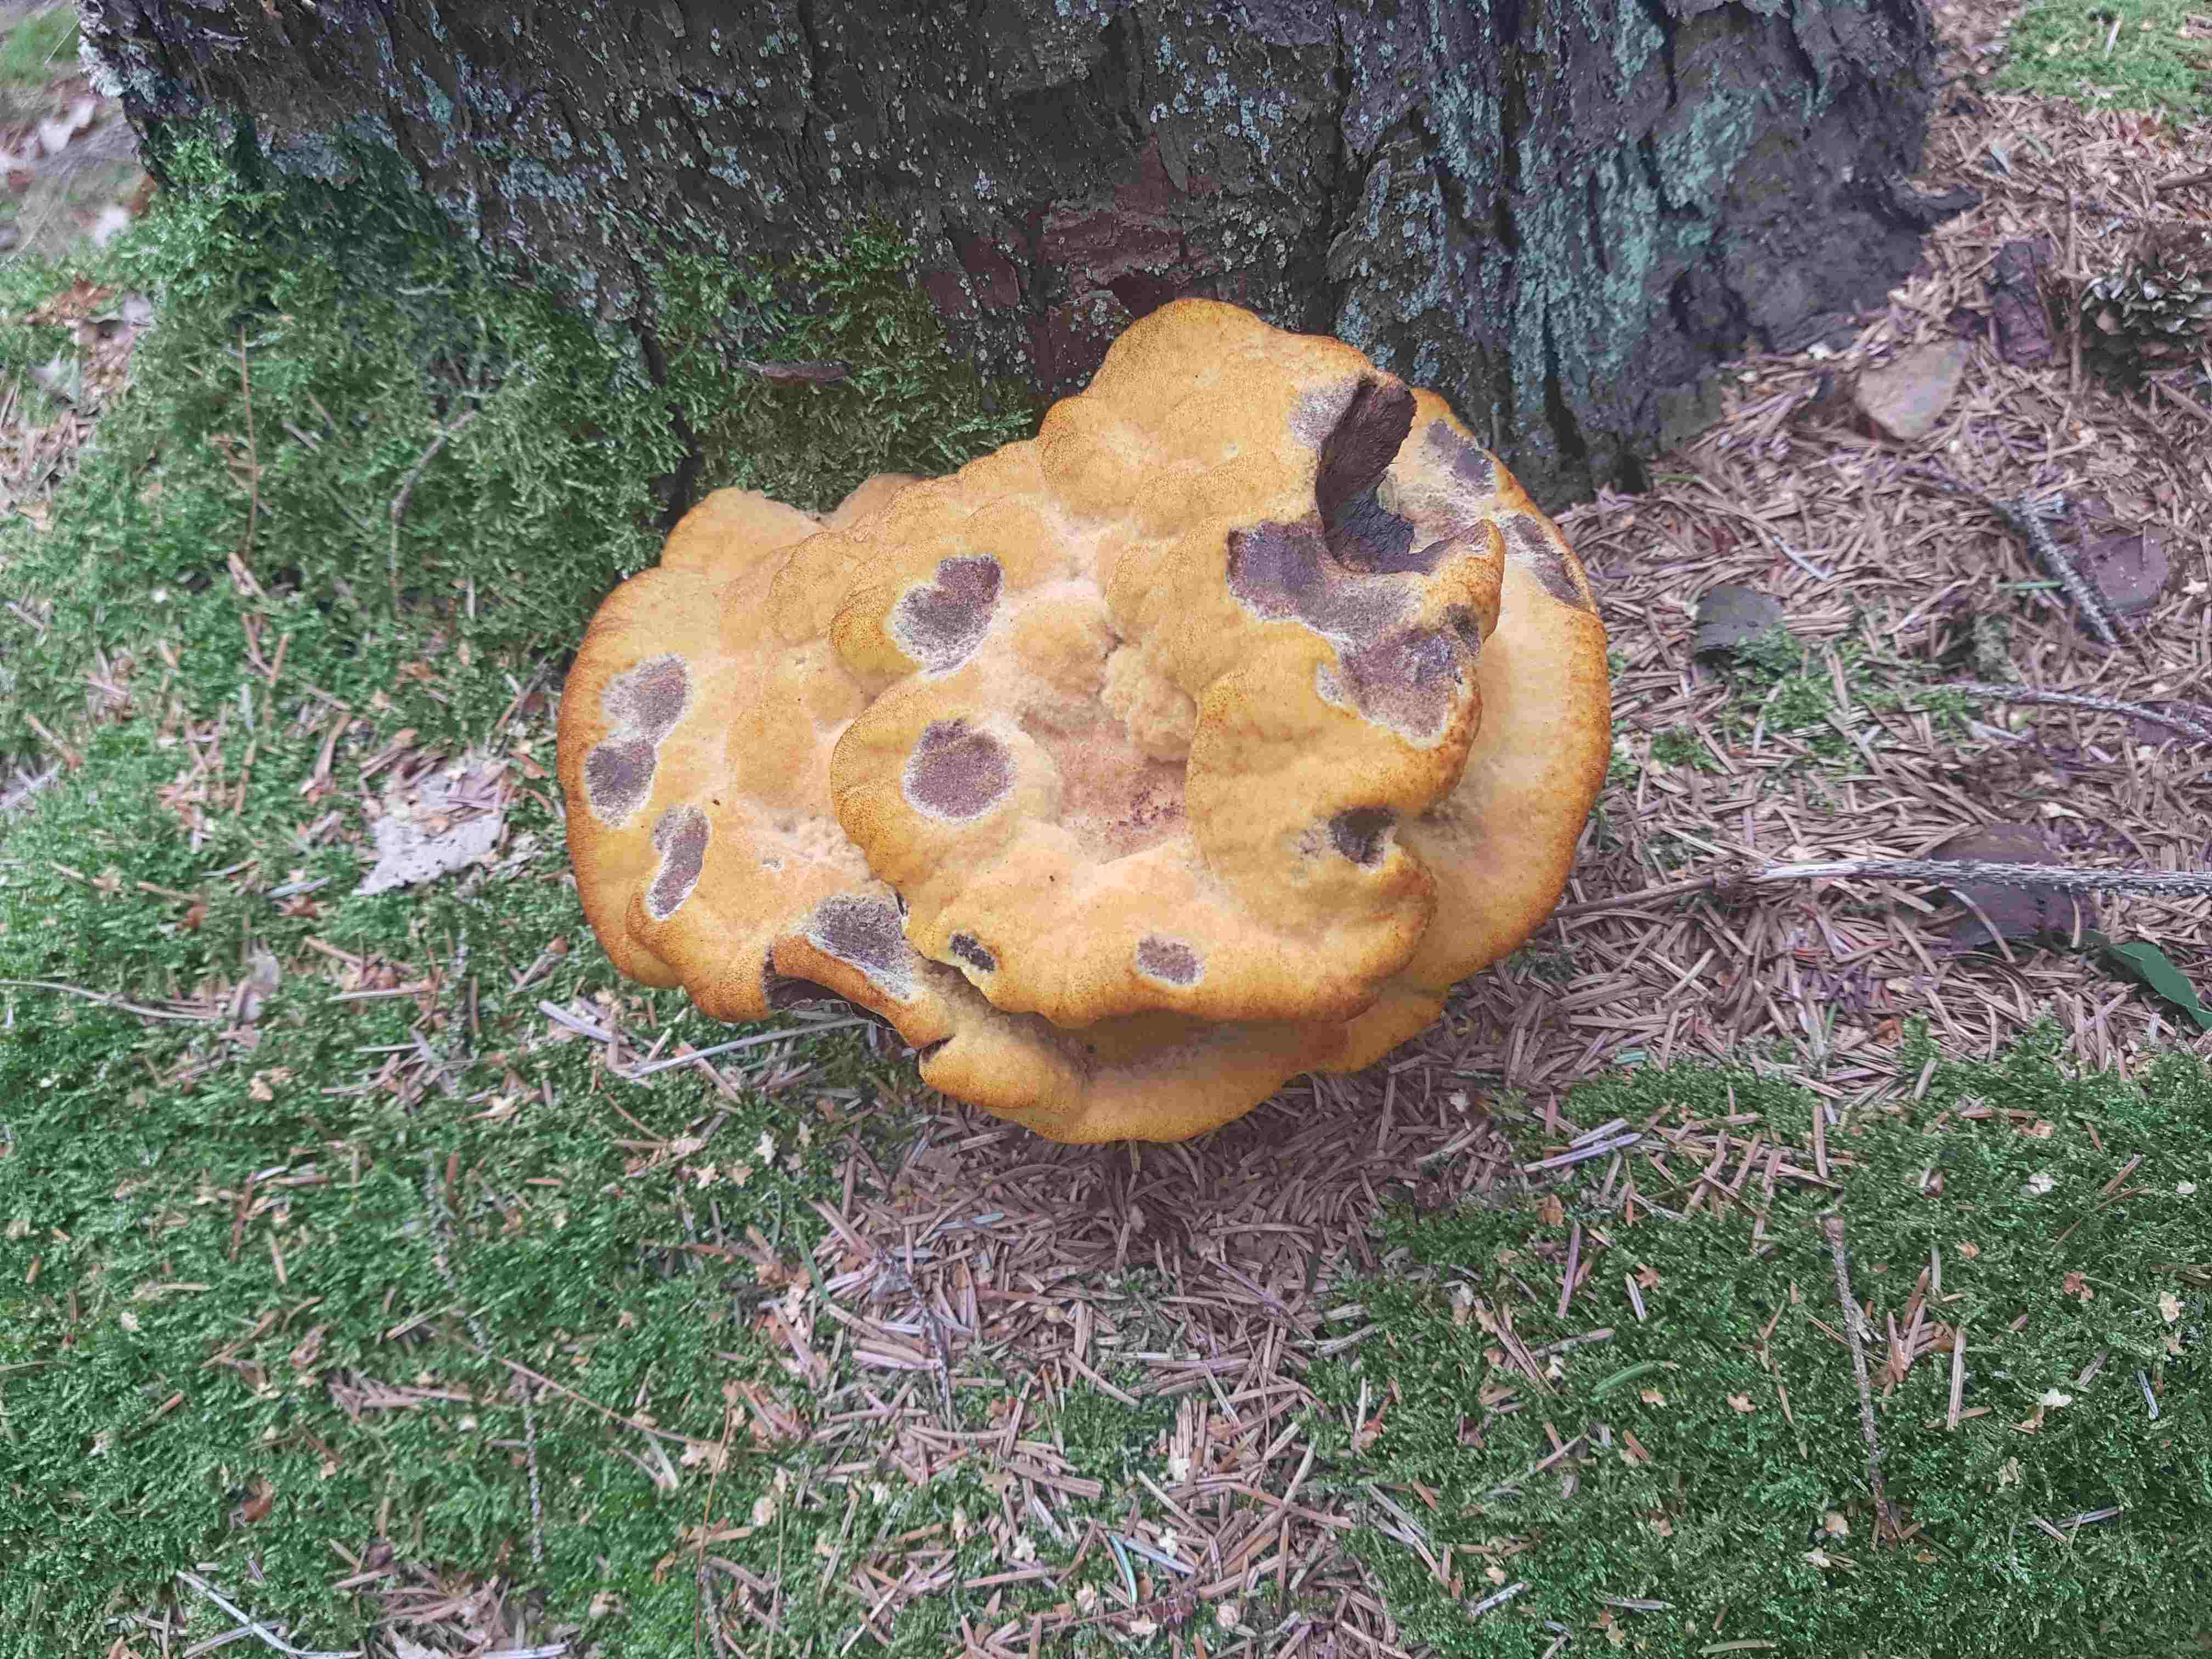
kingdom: Fungi
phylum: Basidiomycota
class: Agaricomycetes
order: Polyporales
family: Laetiporaceae
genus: Phaeolus
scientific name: Phaeolus schweinitzii
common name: brunporesvamp
